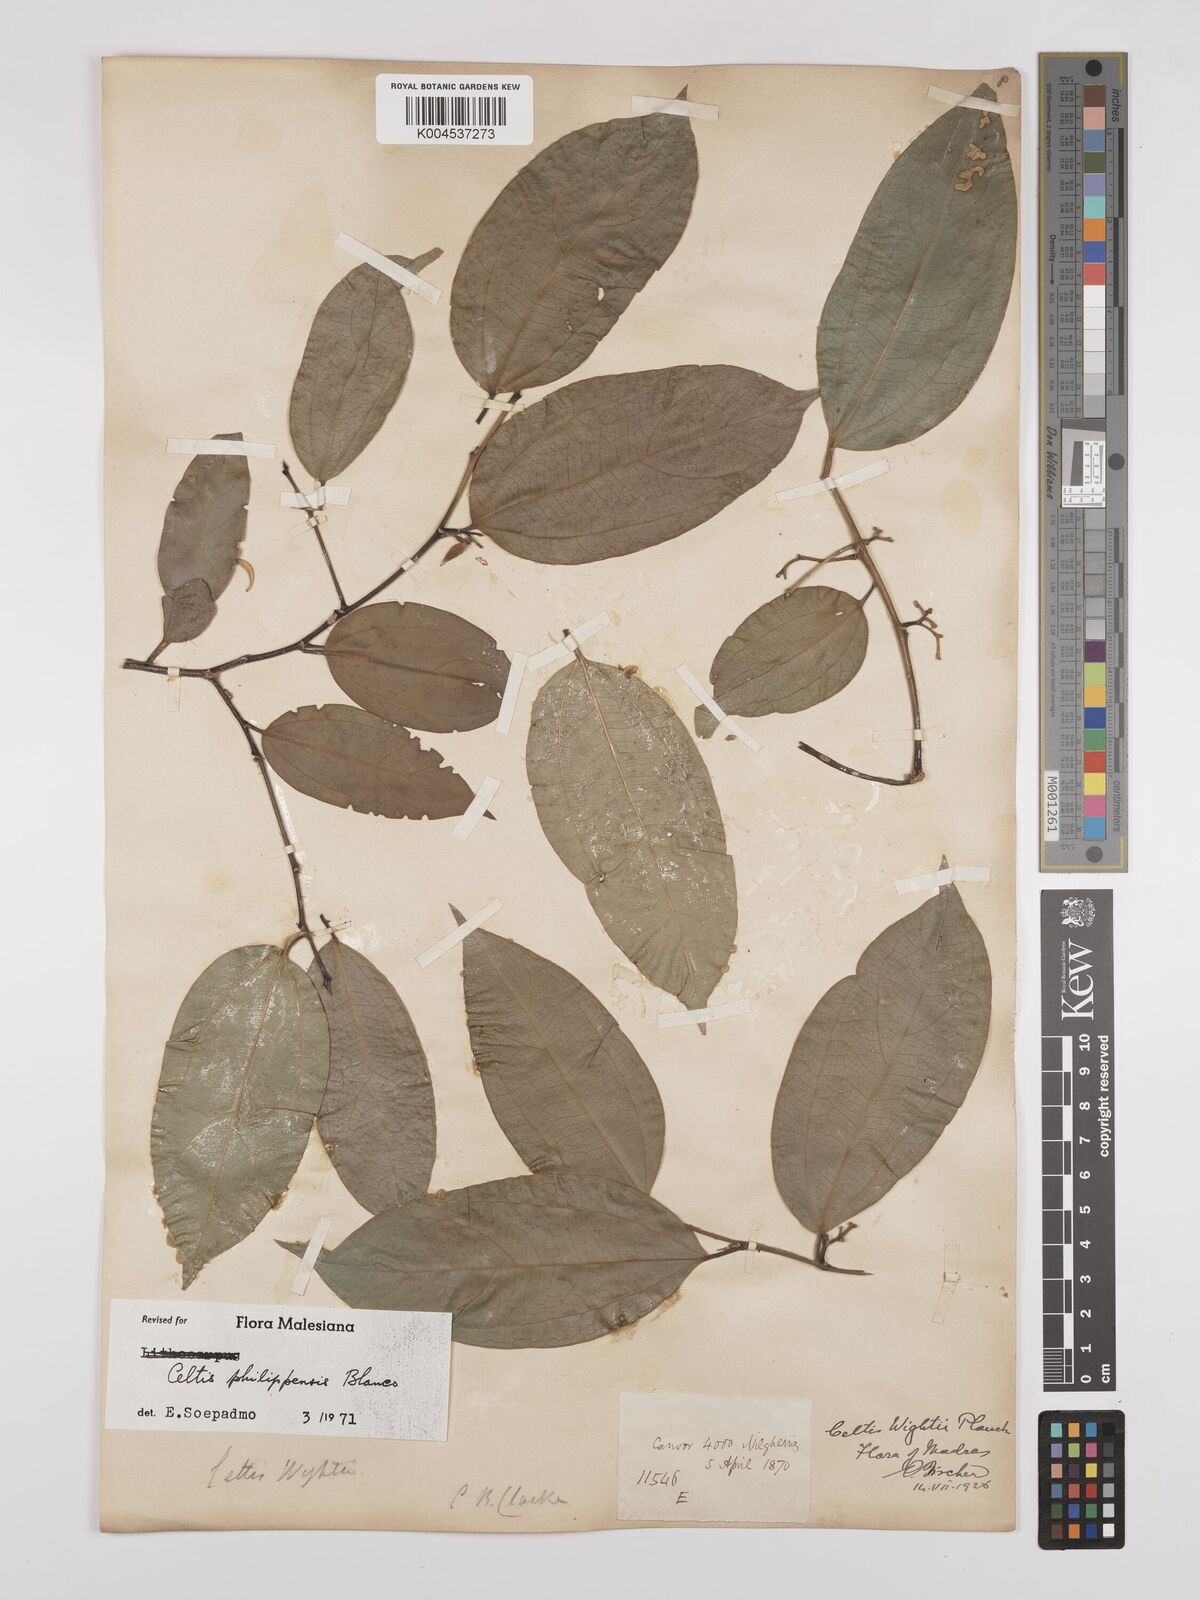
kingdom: Plantae
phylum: Tracheophyta
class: Magnoliopsida
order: Rosales
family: Cannabaceae
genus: Celtis
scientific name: Celtis philippensis
